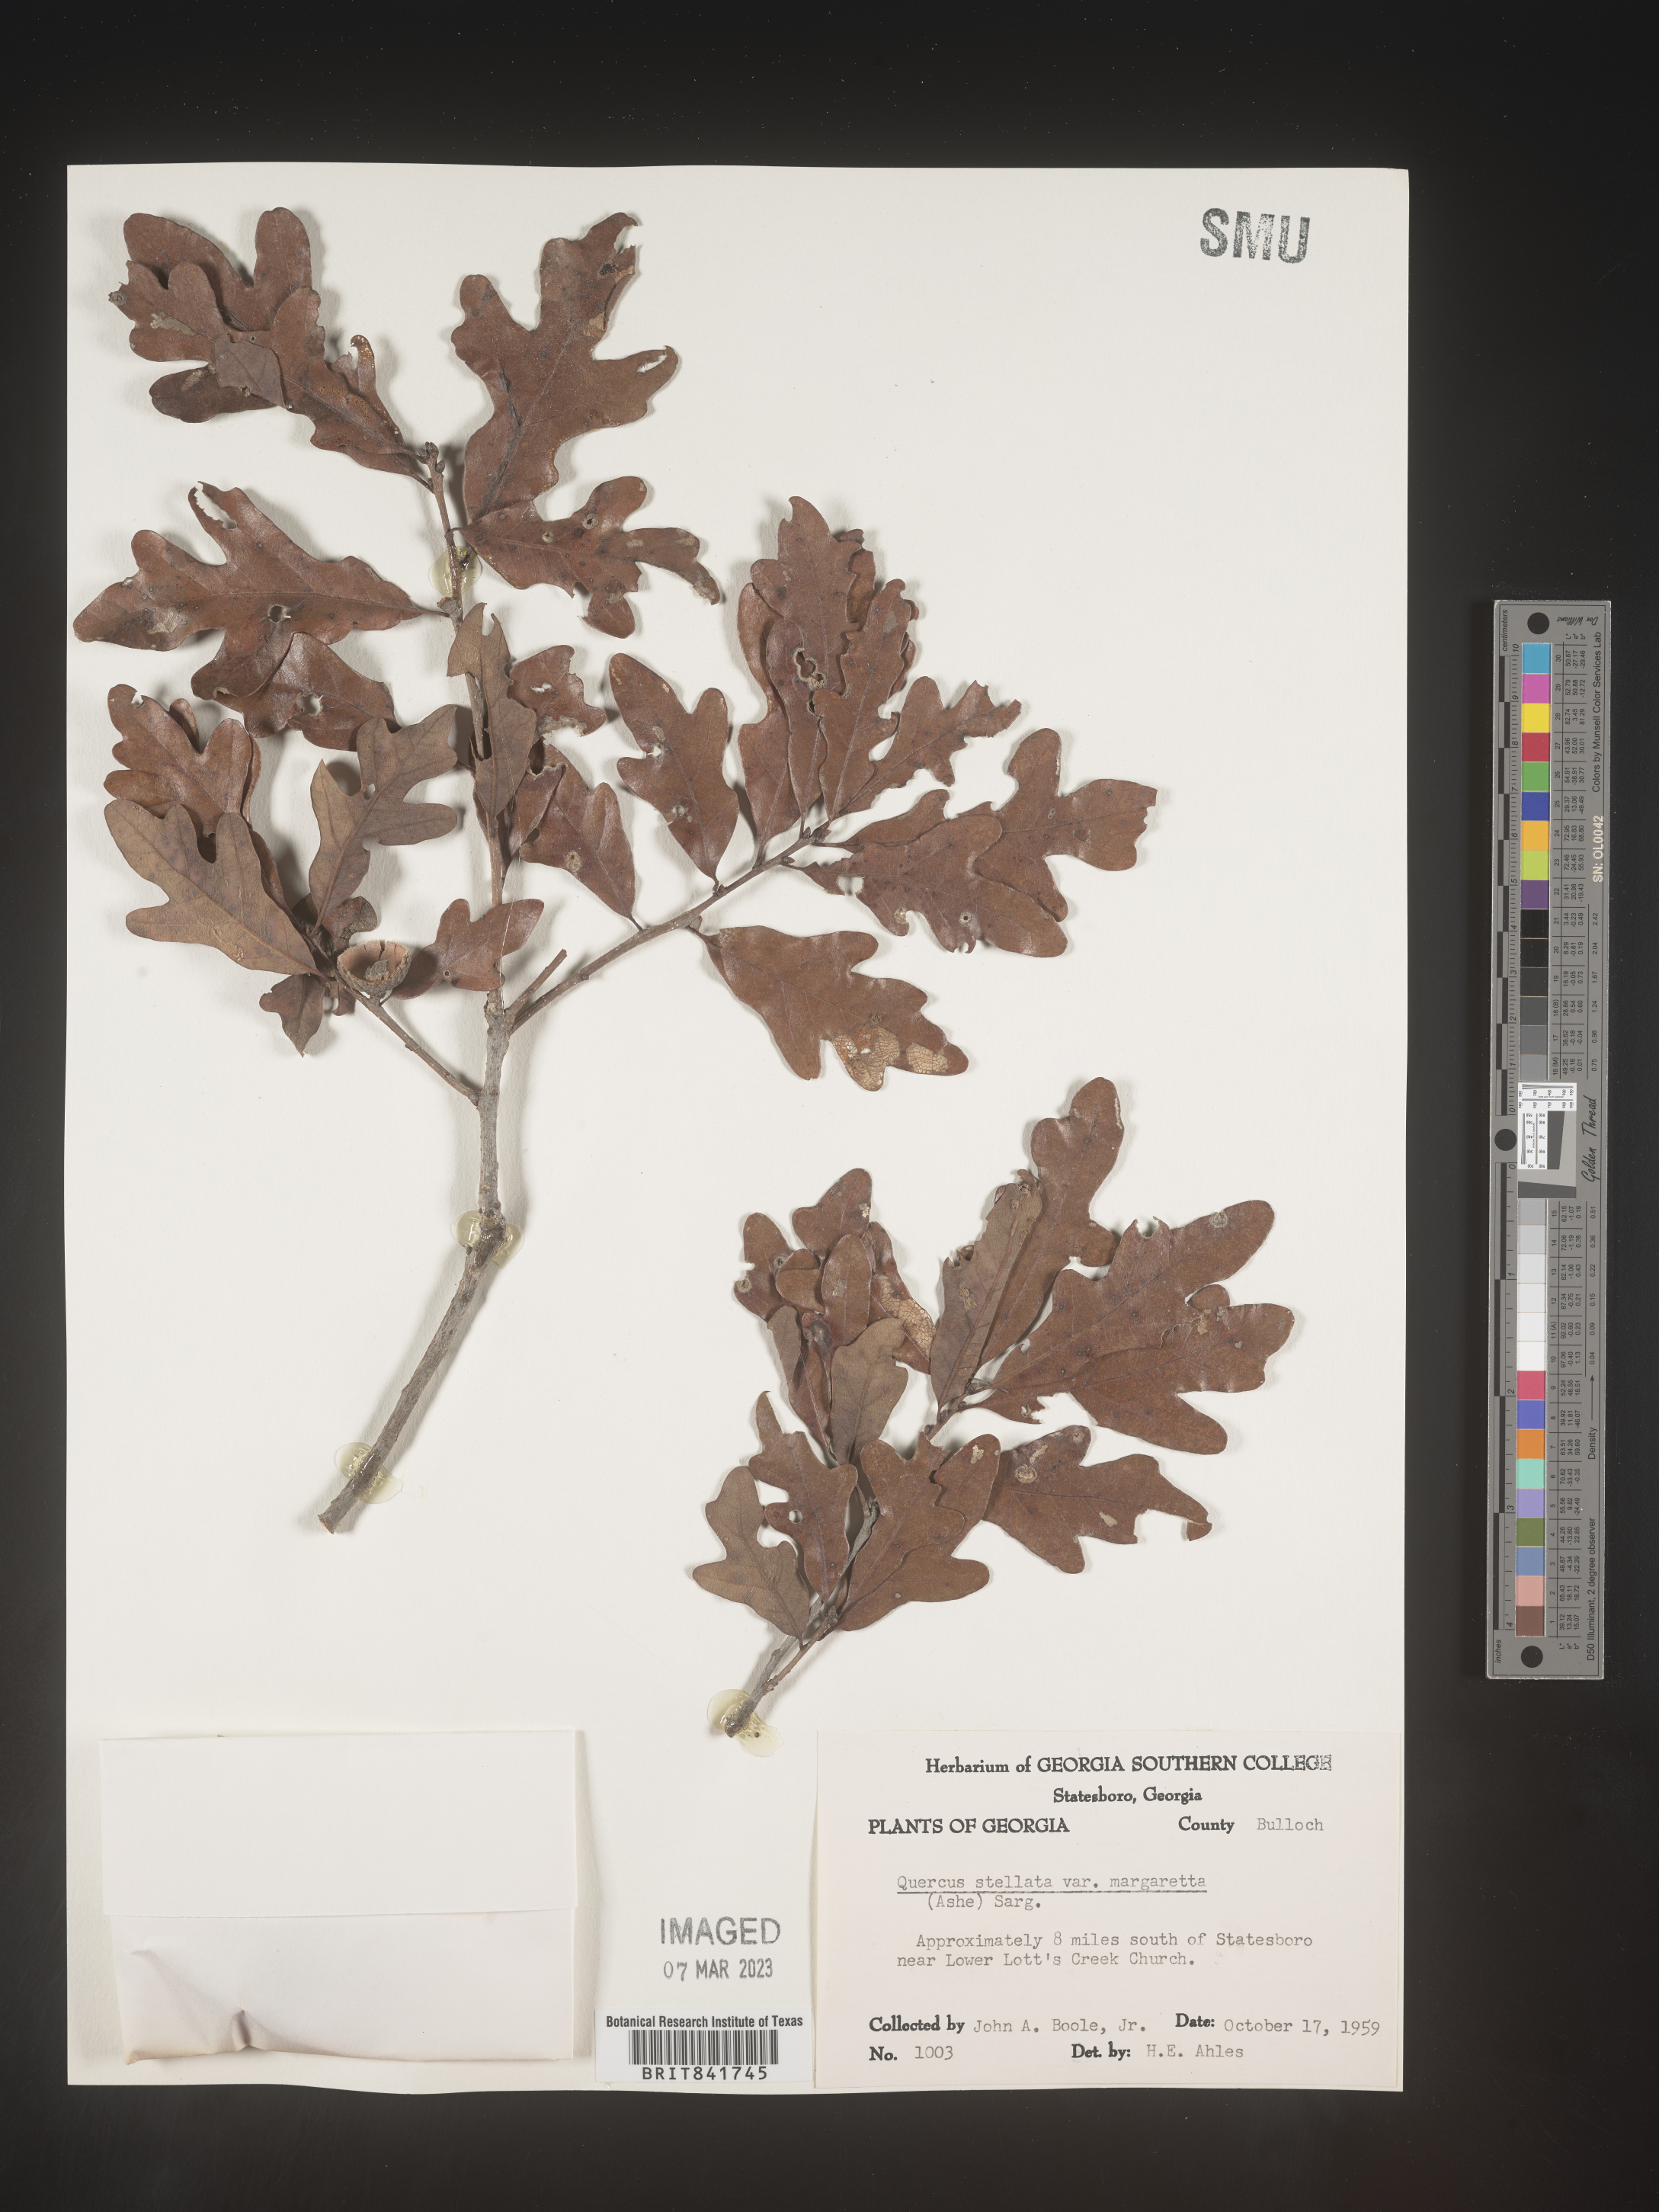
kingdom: Plantae
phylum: Tracheophyta
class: Magnoliopsida
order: Fagales
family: Fagaceae
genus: Quercus
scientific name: Quercus stellata
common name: Post oak
